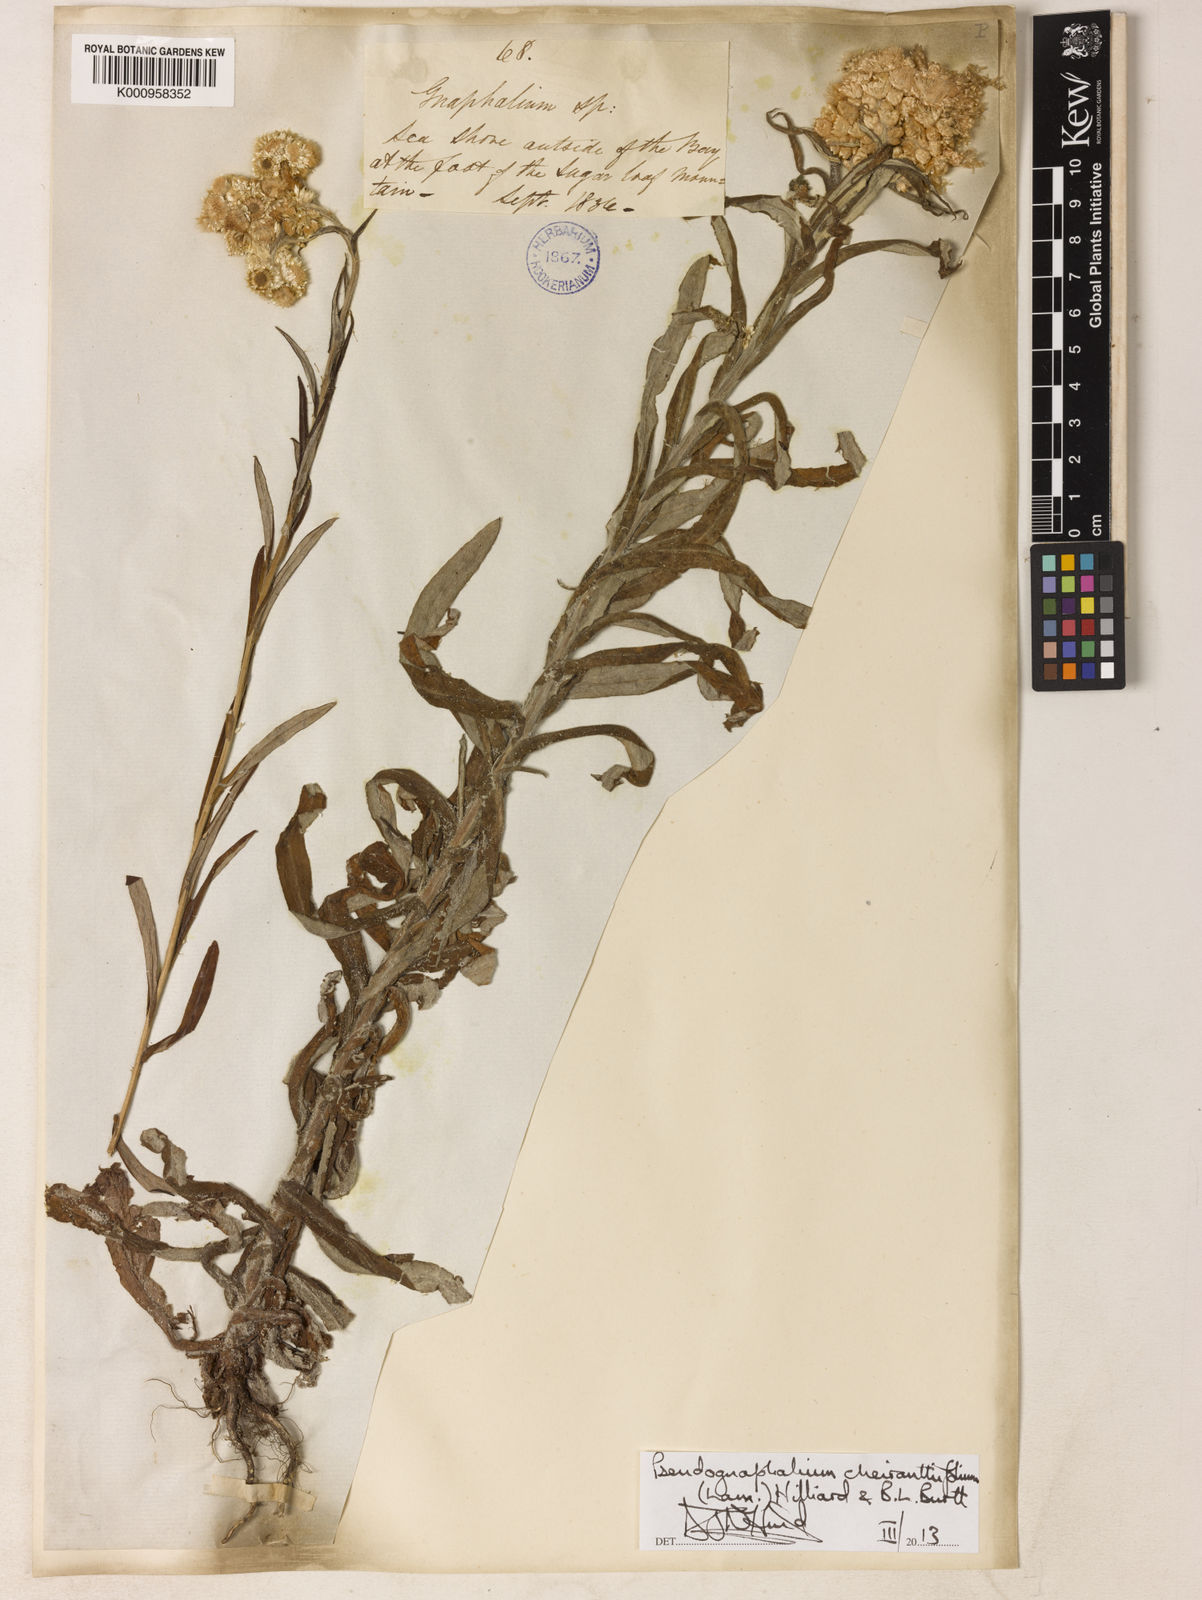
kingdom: Plantae
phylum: Tracheophyta
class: Magnoliopsida
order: Asterales
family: Asteraceae
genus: Pseudognaphalium
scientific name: Pseudognaphalium cheiranthifolium
